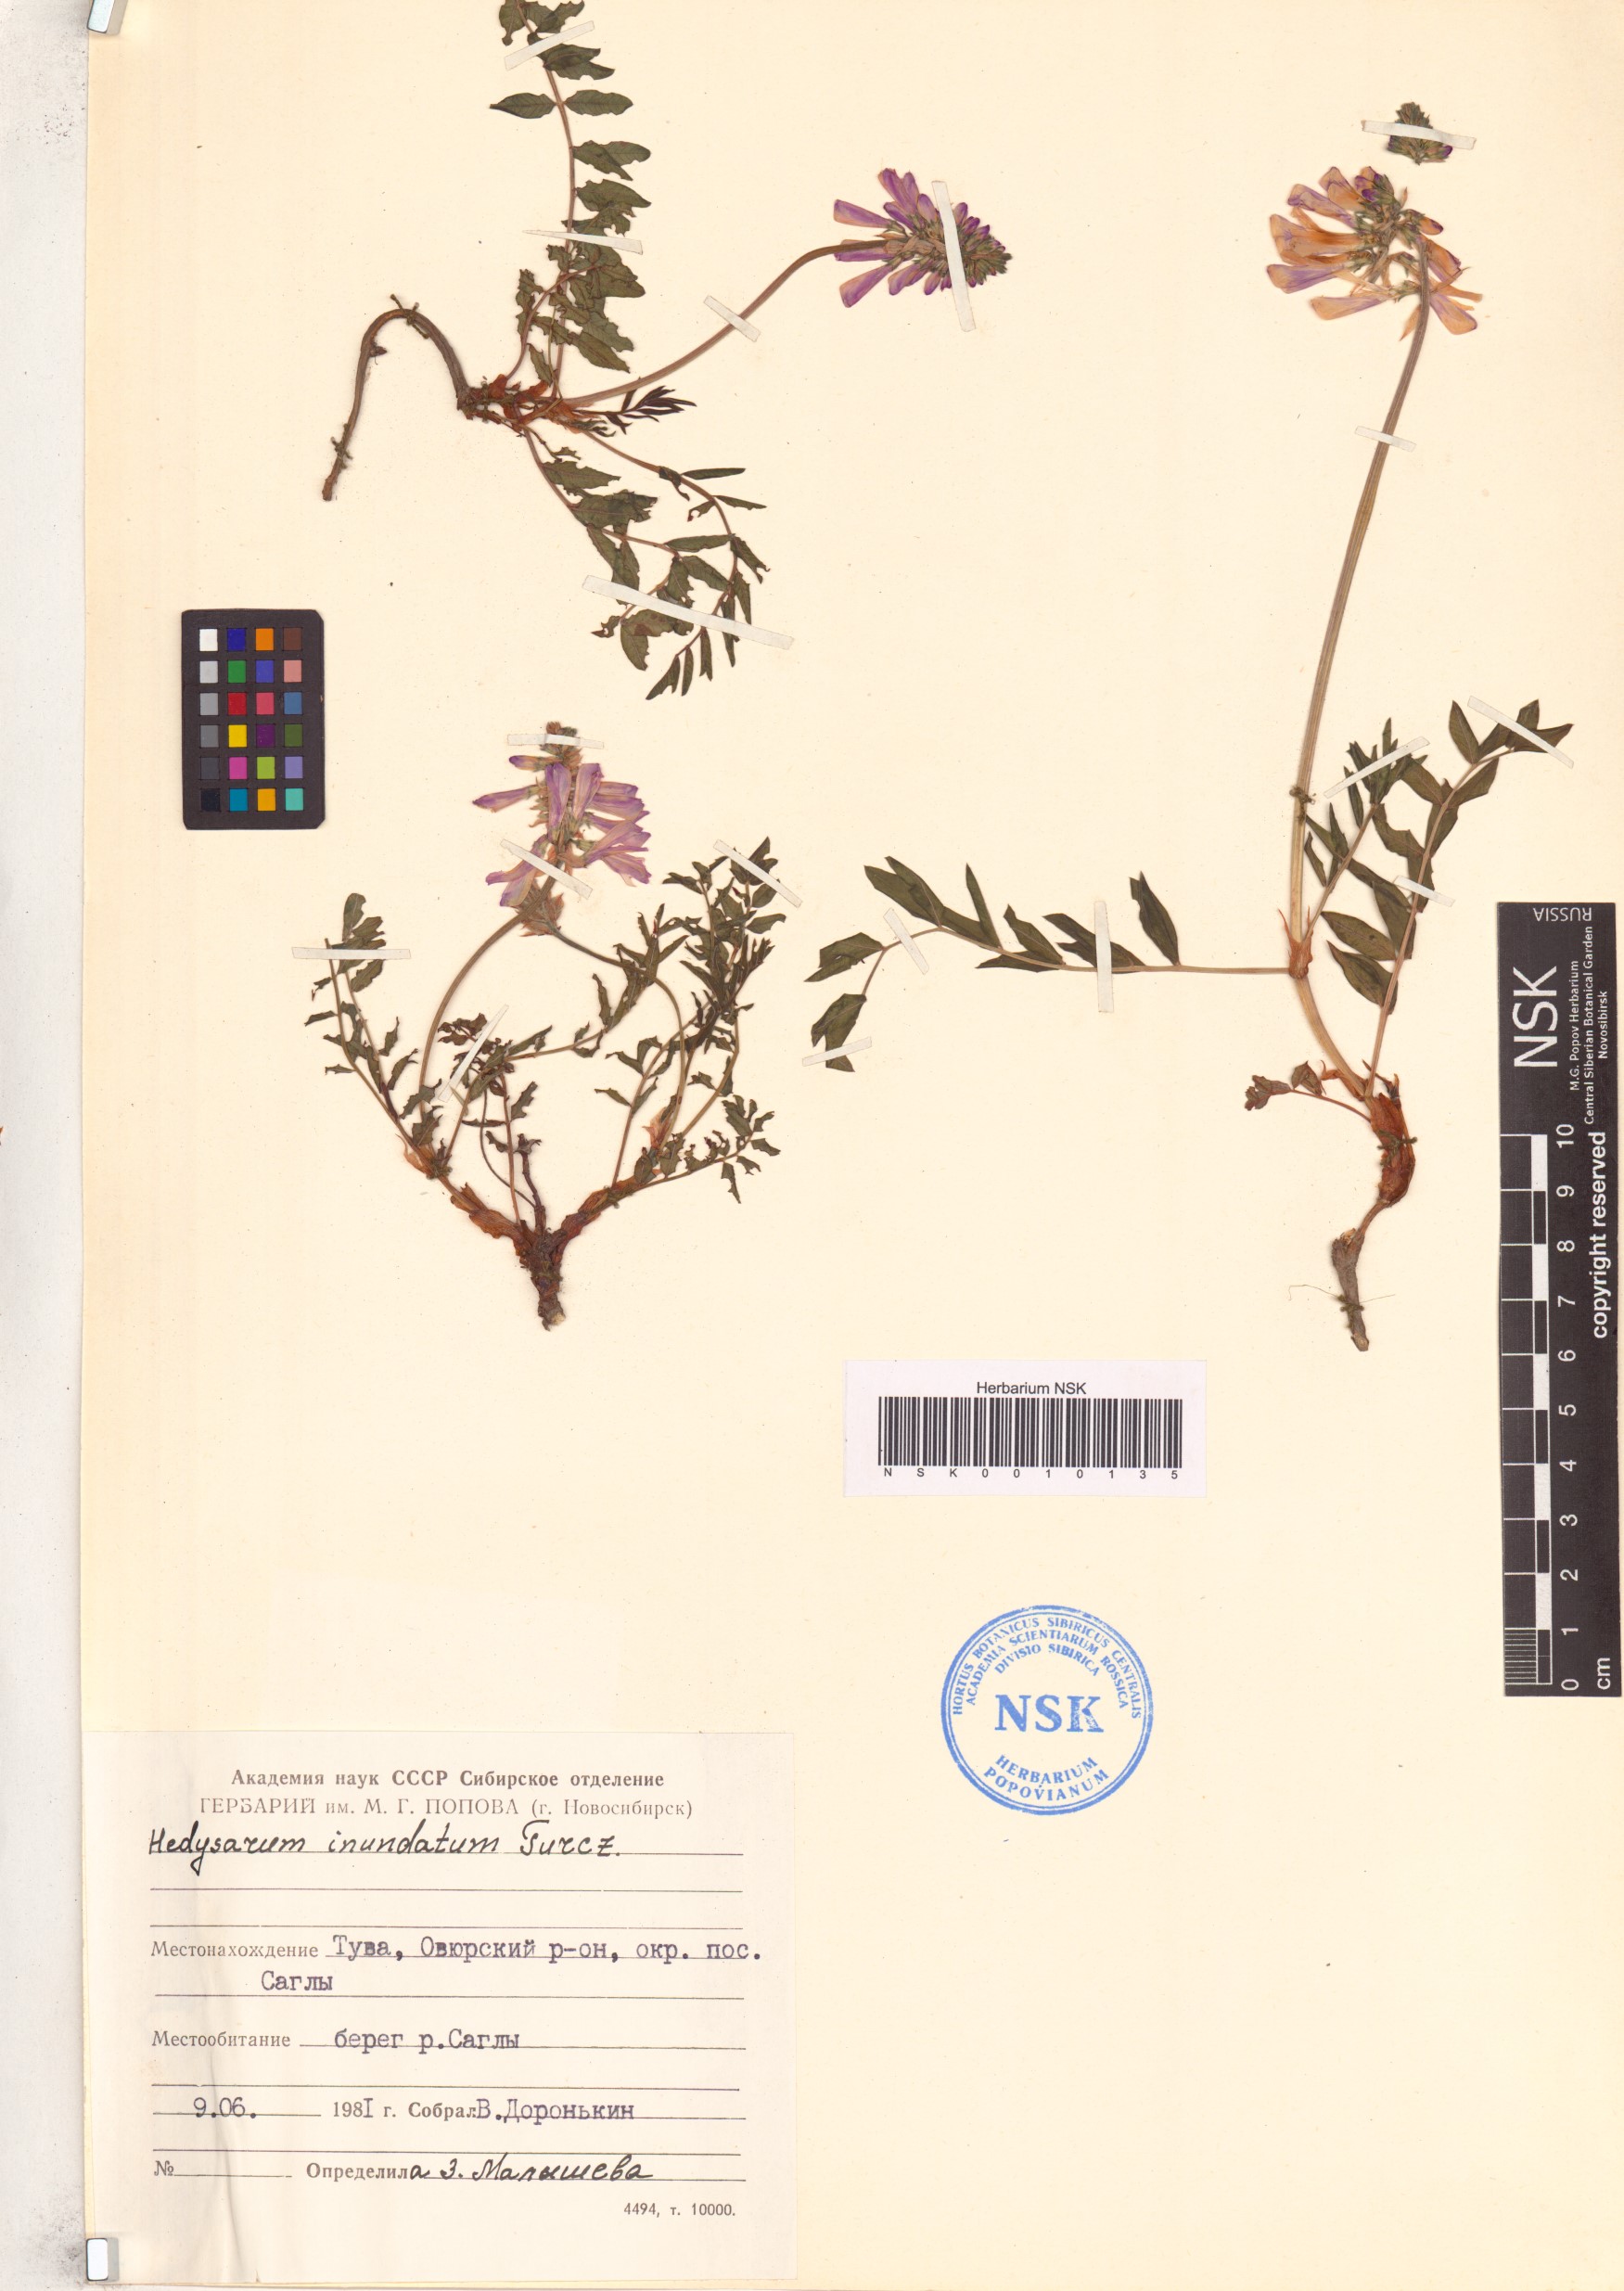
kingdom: Plantae
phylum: Tracheophyta
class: Magnoliopsida
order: Fabales
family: Fabaceae
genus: Hedysarum
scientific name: Hedysarum inundatum
